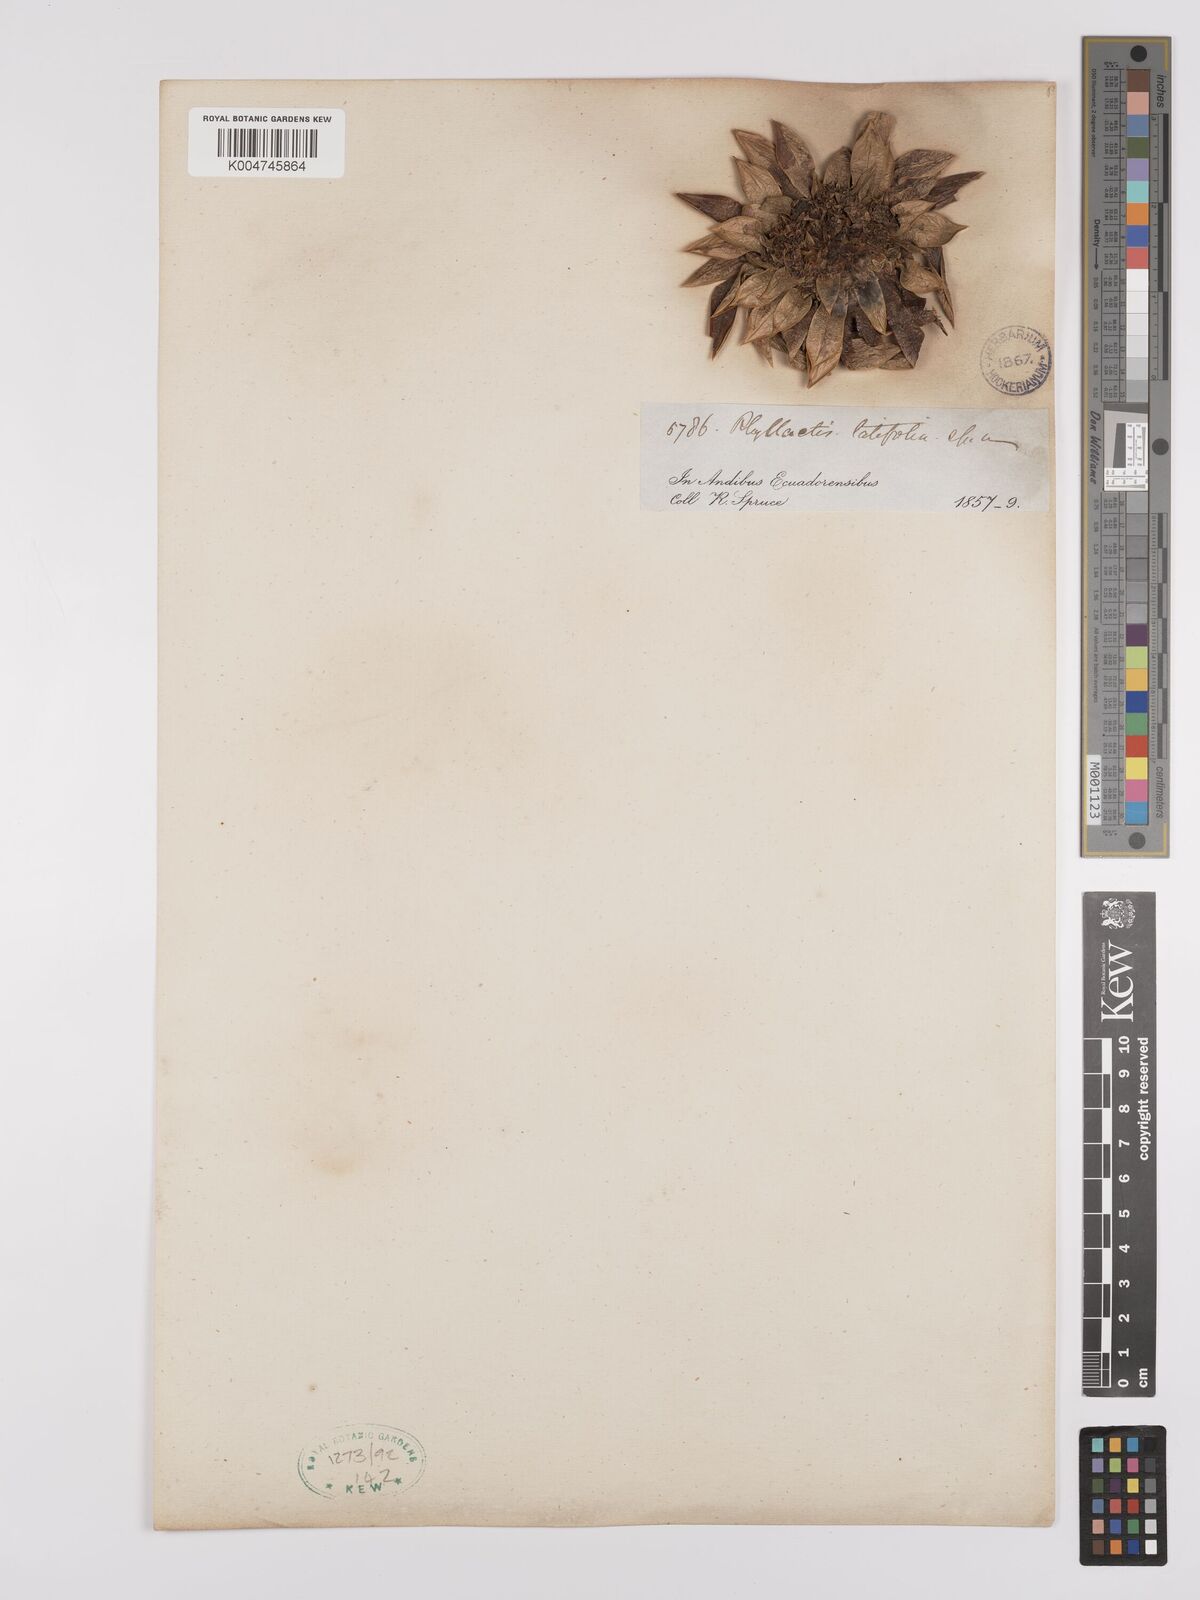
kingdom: Plantae
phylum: Tracheophyta
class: Magnoliopsida
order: Dipsacales
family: Caprifoliaceae
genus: Valeriana
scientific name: Valeriana rigida
